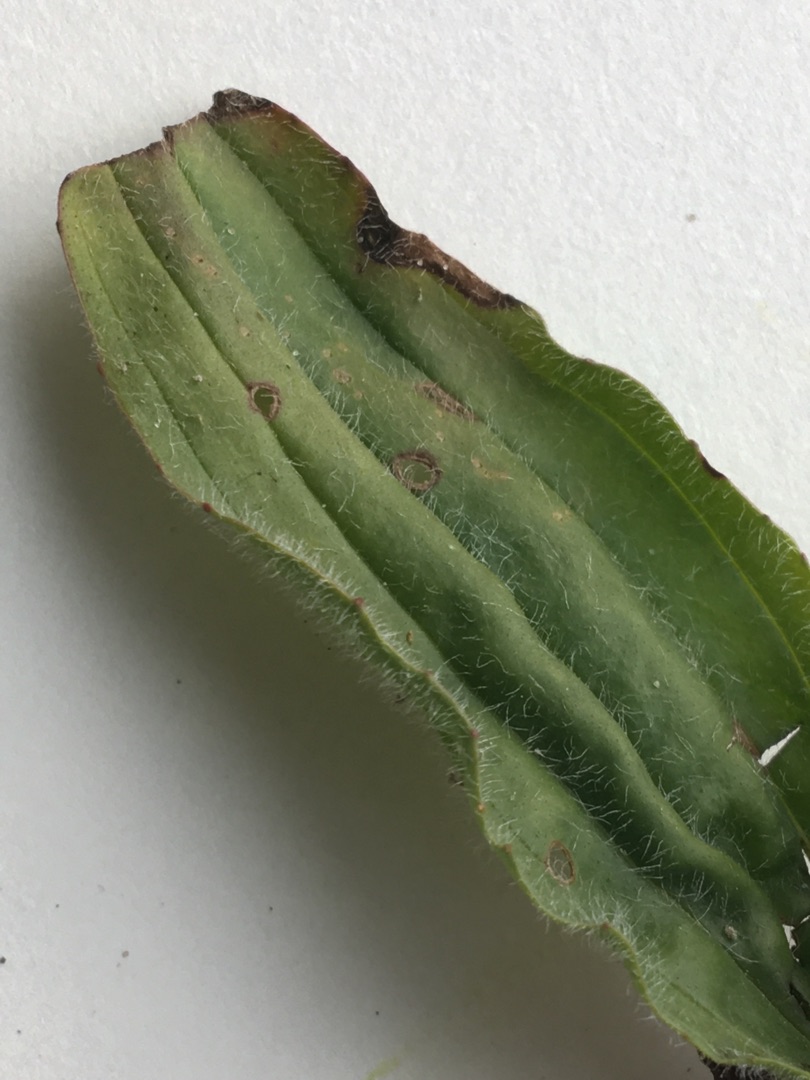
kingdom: Plantae
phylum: Tracheophyta
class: Magnoliopsida
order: Lamiales
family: Plantaginaceae
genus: Plantago
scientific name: Plantago lanceolata
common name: Lancet-vejbred
